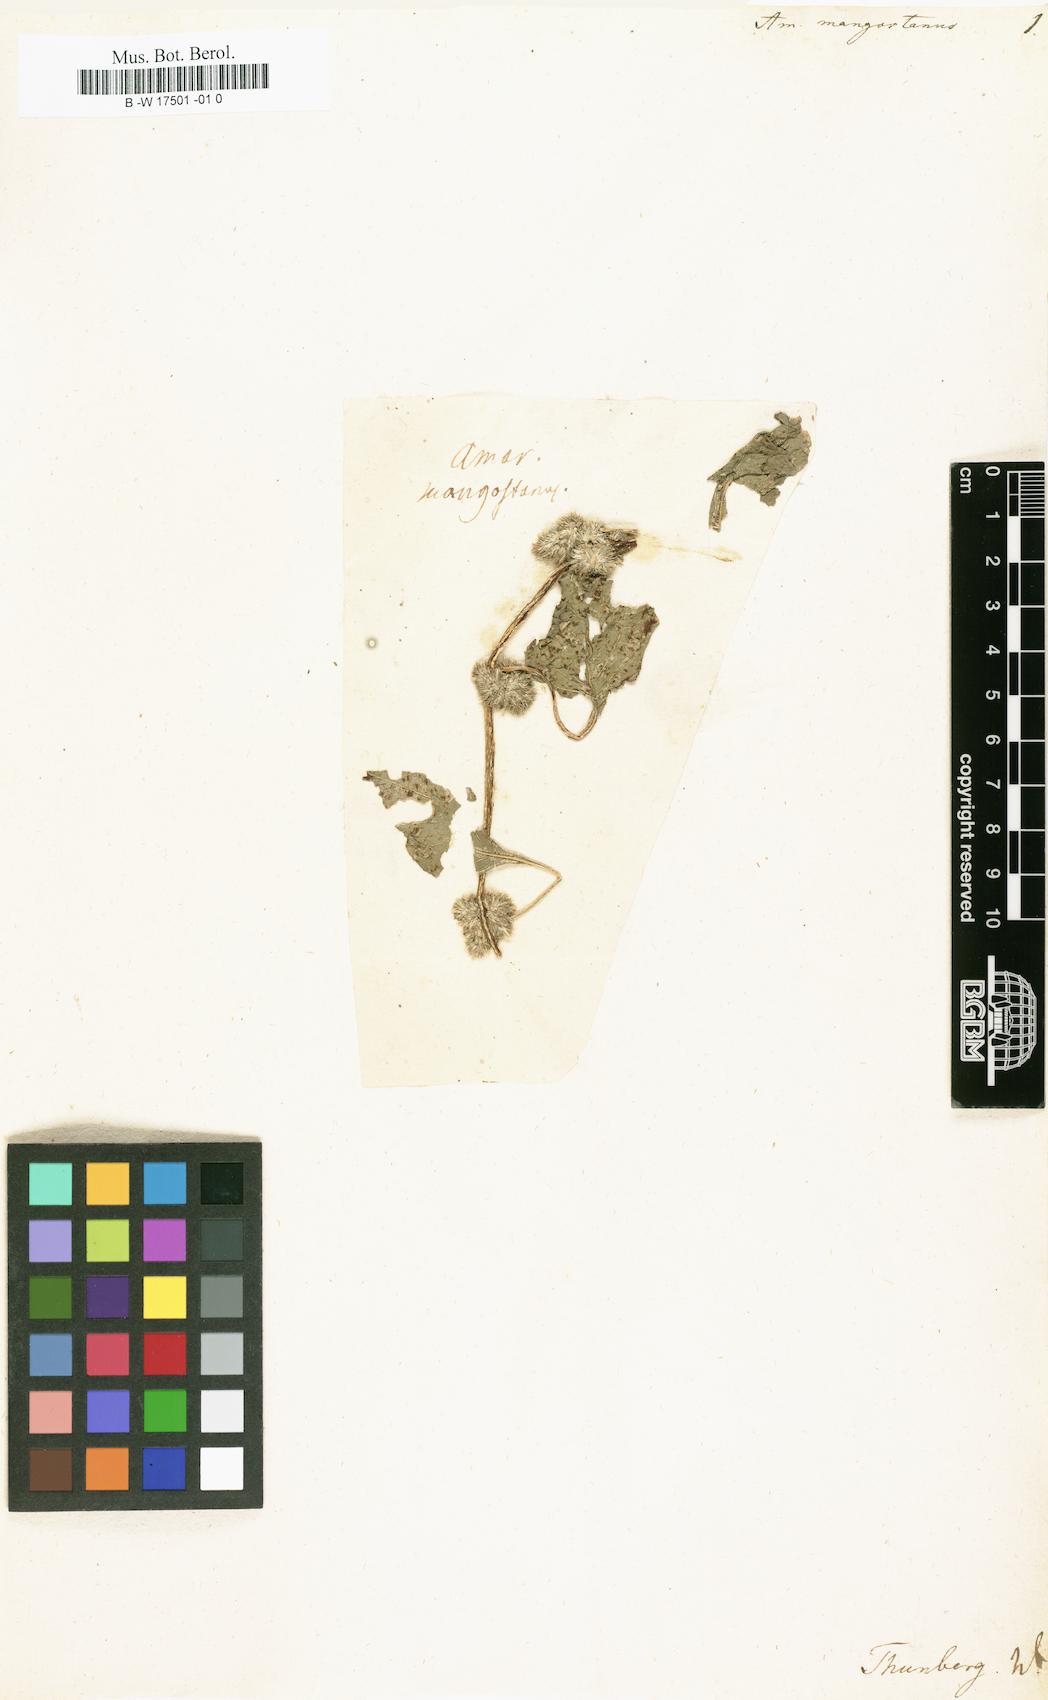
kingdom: Plantae
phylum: Tracheophyta
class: Magnoliopsida
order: Caryophyllales
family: Amaranthaceae
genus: Amaranthus
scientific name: Amaranthus tricolor
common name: Joseph's-coat
